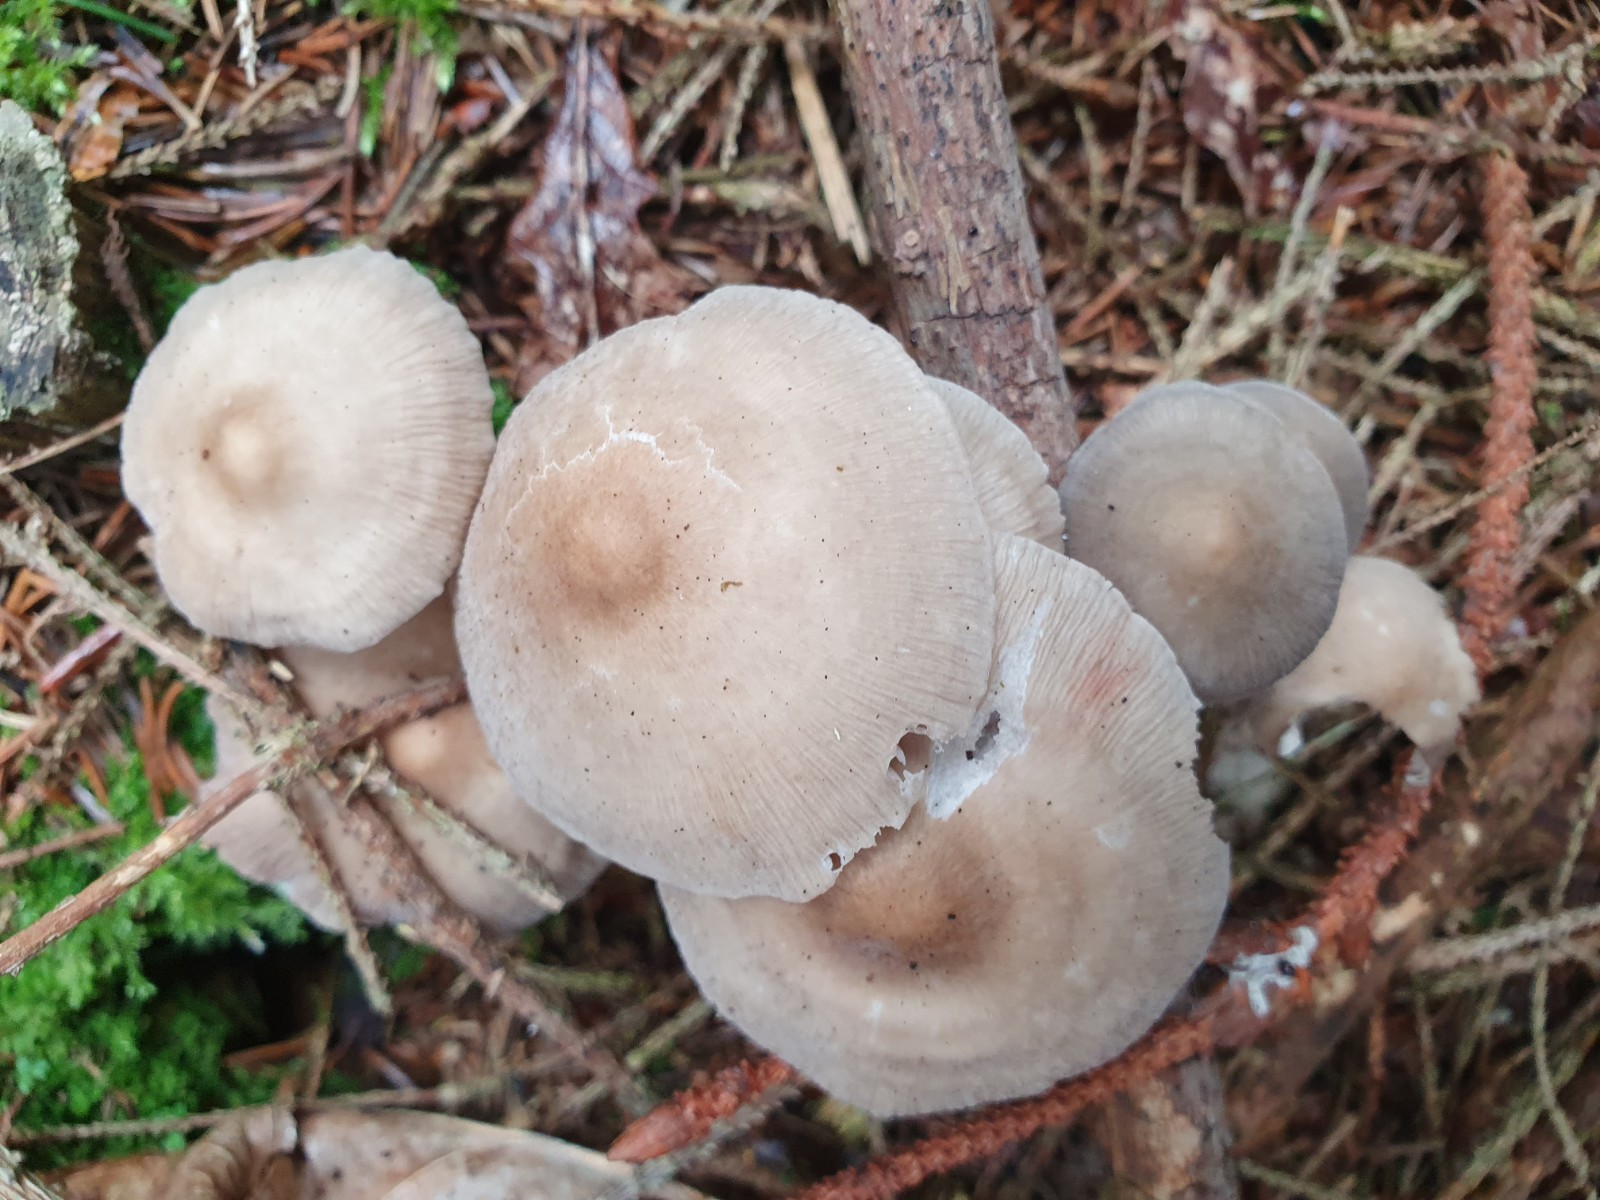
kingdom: Fungi
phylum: Basidiomycota
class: Agaricomycetes
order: Agaricales
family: Mycenaceae
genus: Mycena
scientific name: Mycena galericulata
